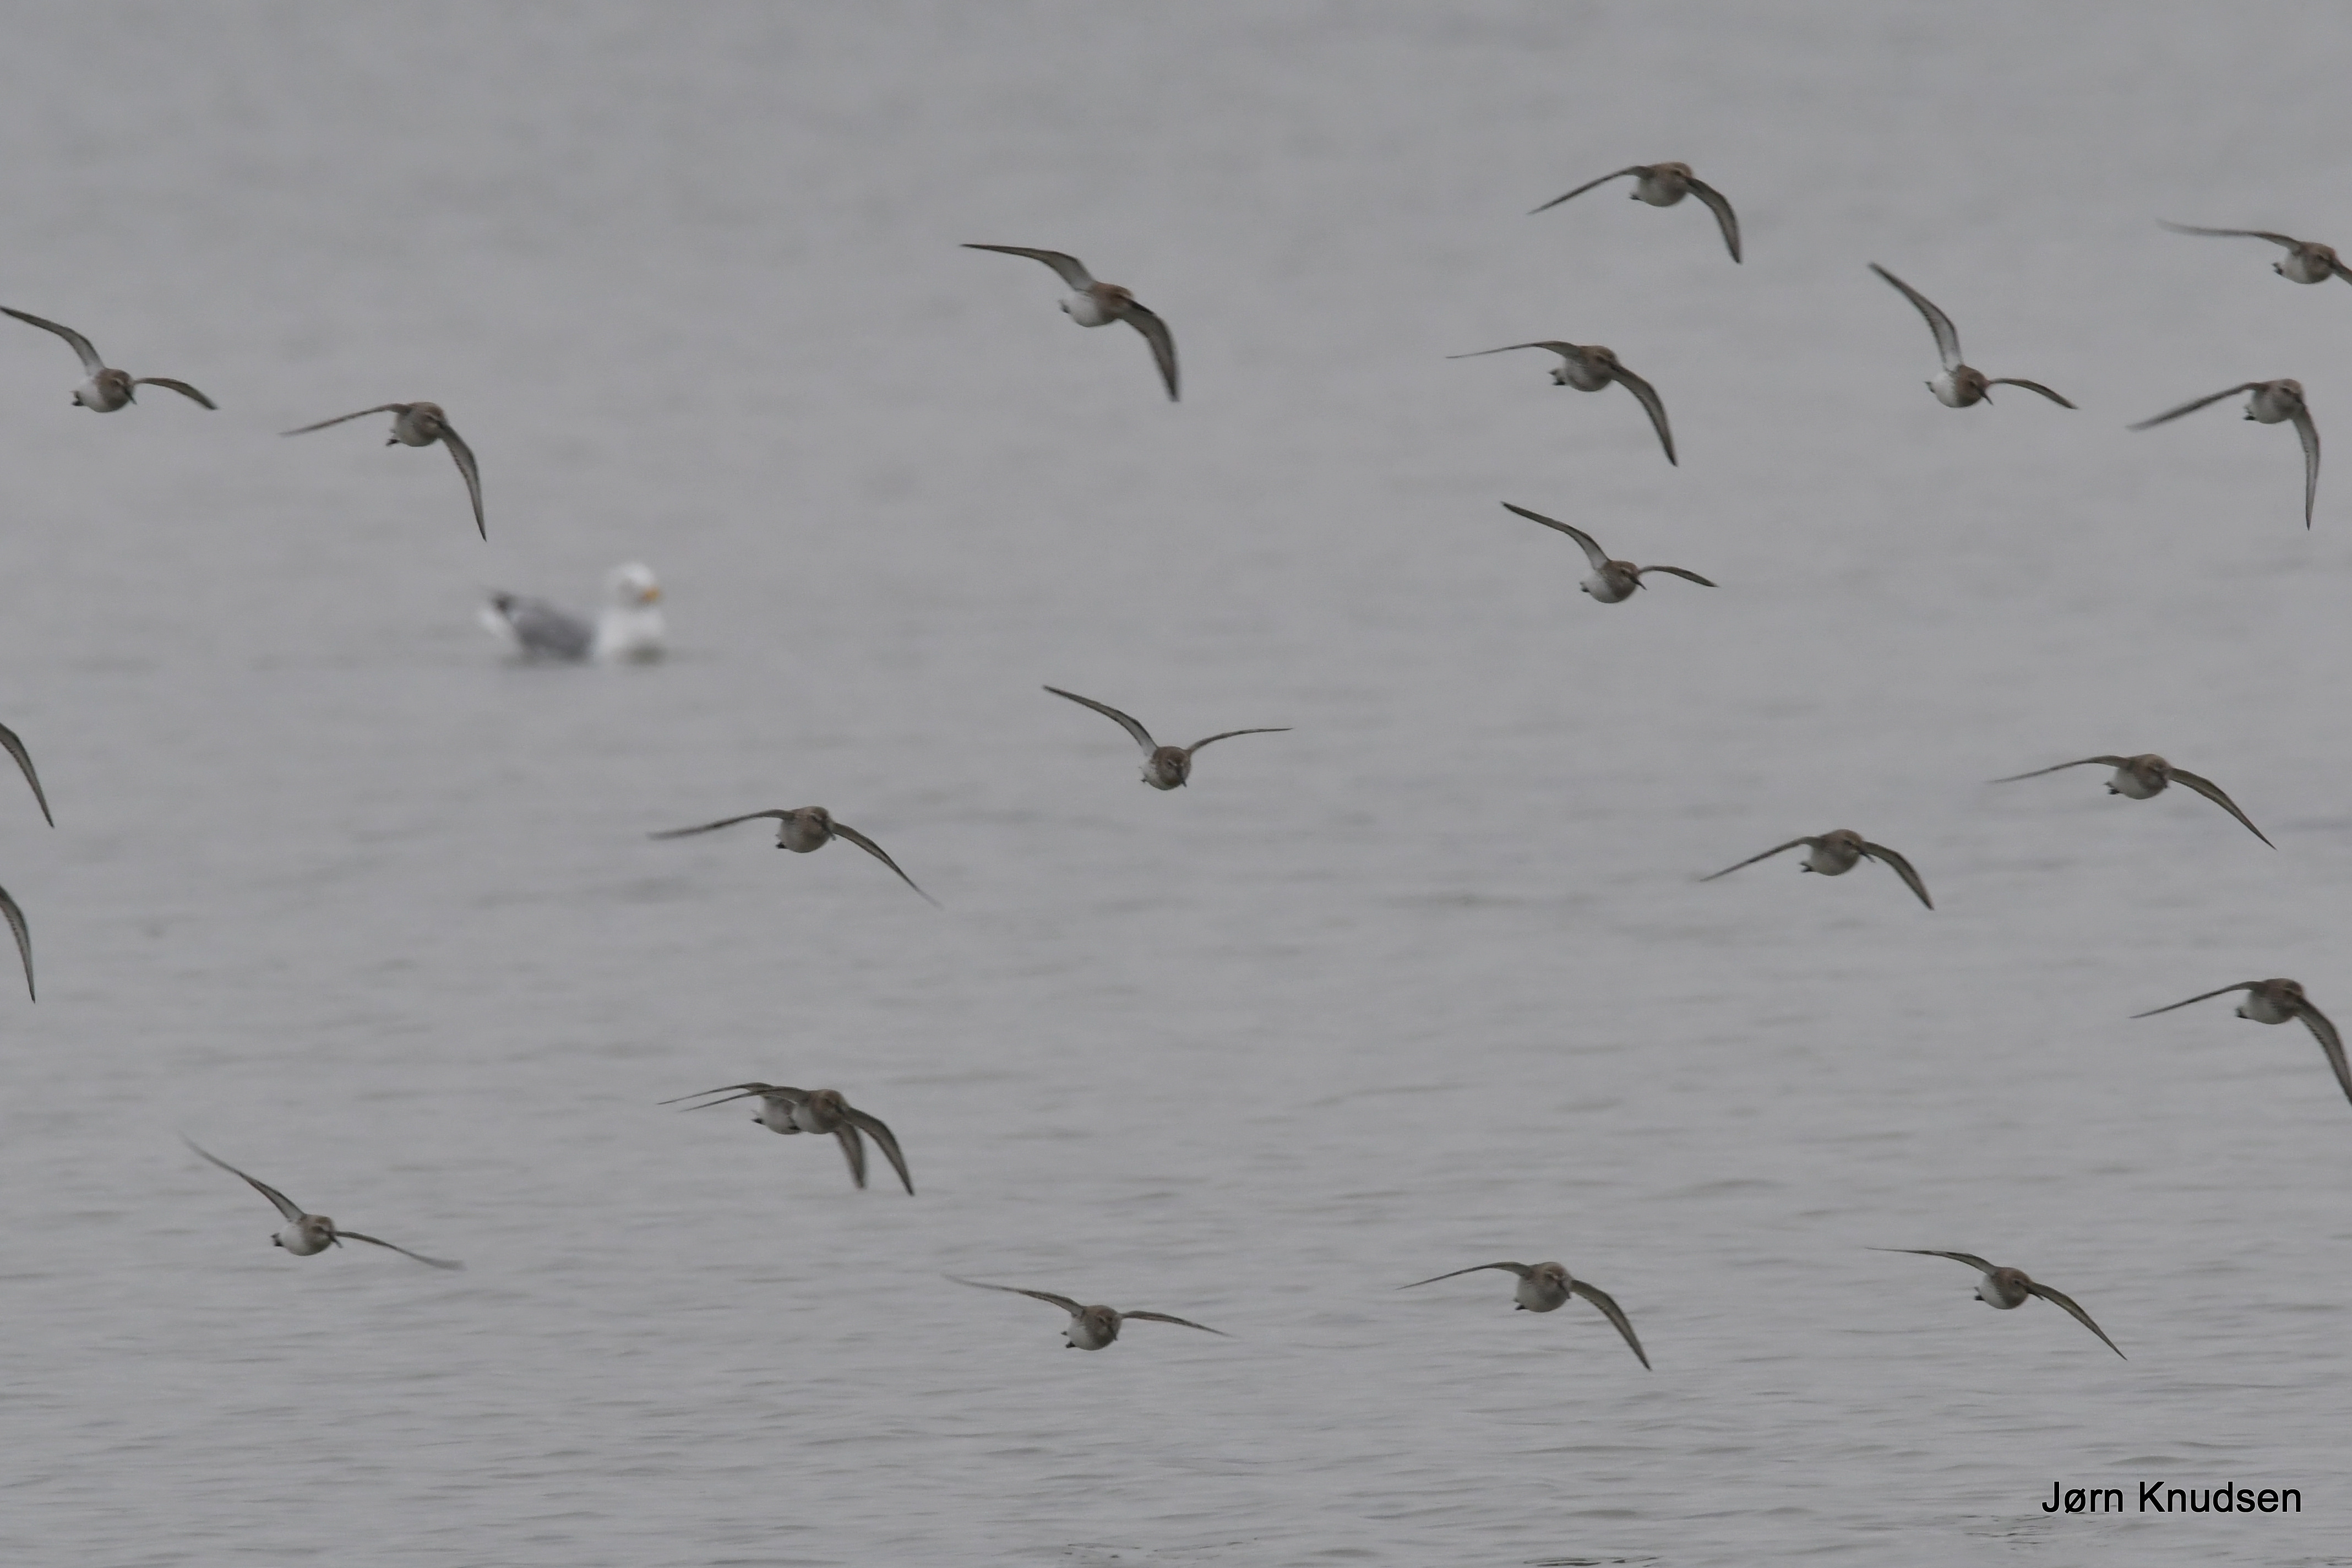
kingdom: Animalia
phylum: Chordata
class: Aves
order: Charadriiformes
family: Scolopacidae
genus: Calidris
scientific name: Calidris alpina
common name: Almindelig ryle
